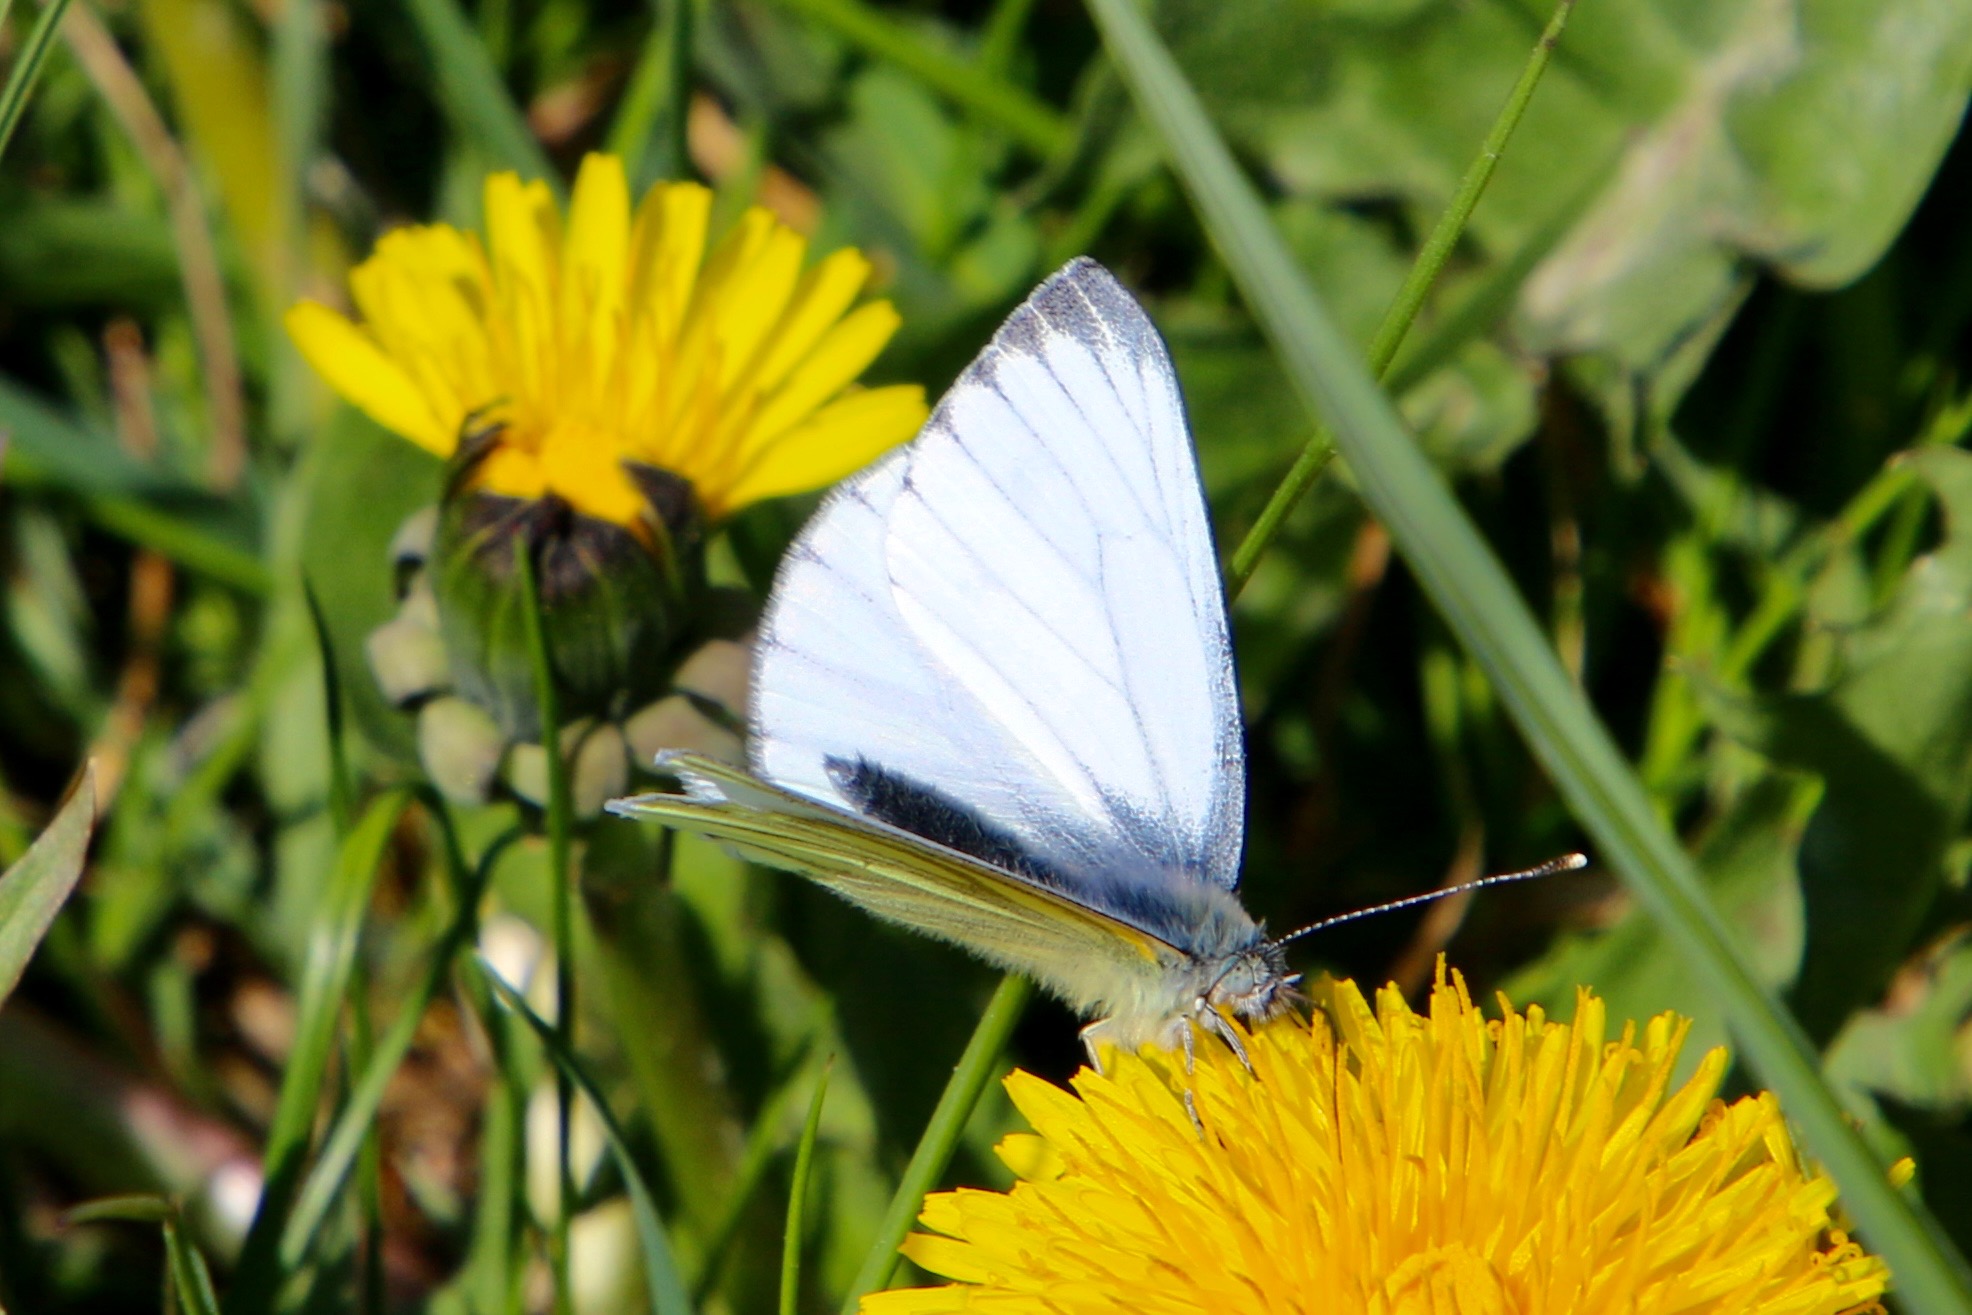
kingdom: Animalia
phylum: Arthropoda
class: Insecta
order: Lepidoptera
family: Pieridae
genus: Pieris
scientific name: Pieris napi
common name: Grønåret kålsommerfugl
